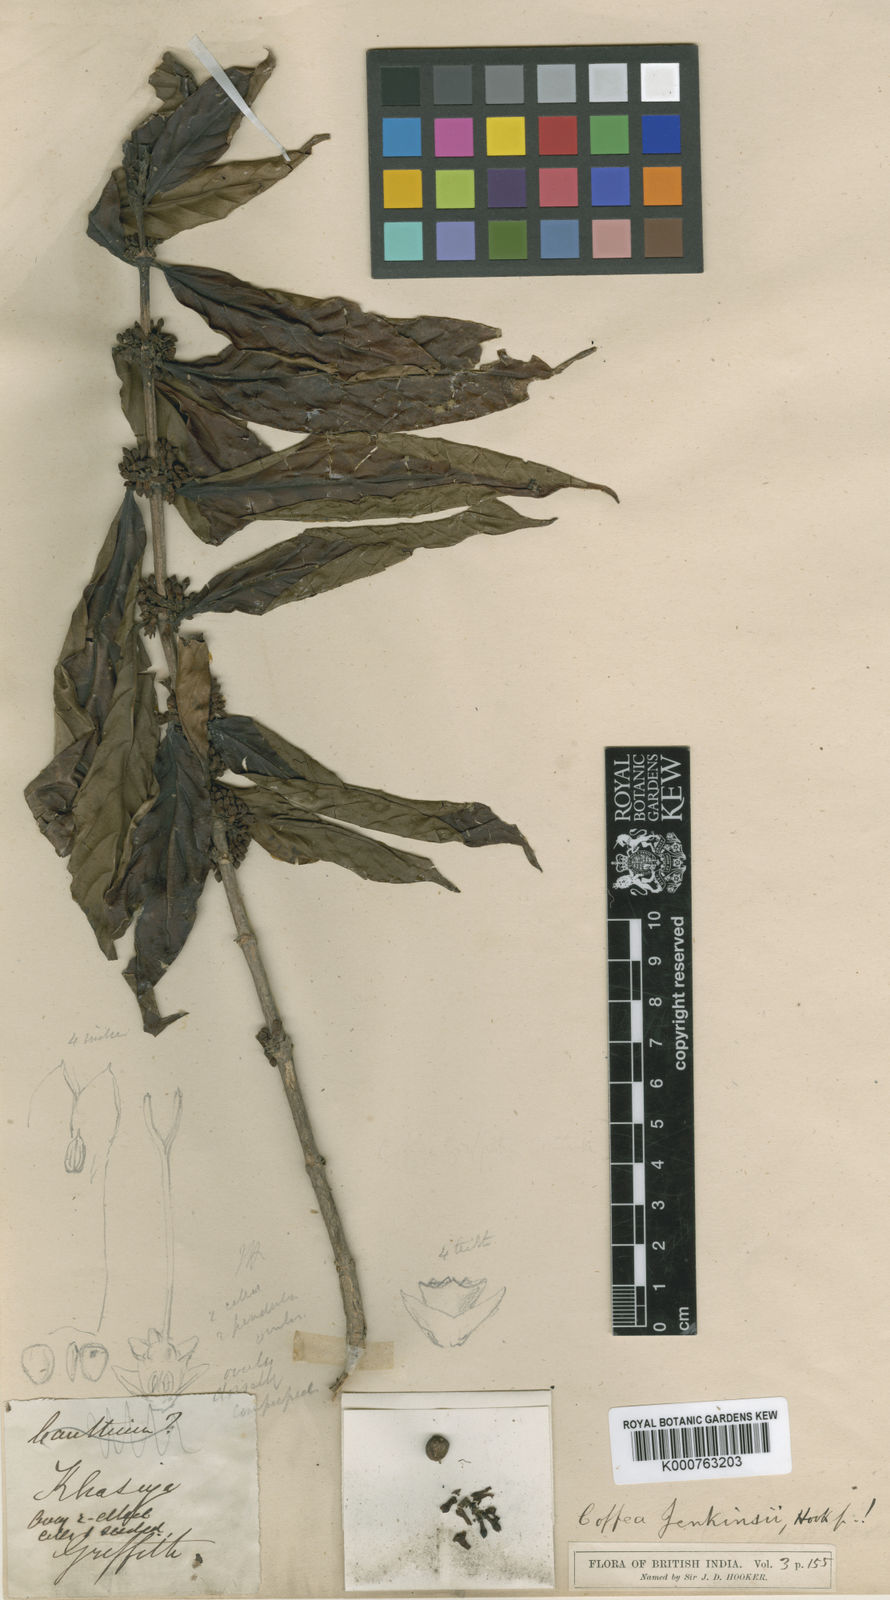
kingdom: Plantae
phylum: Tracheophyta
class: Magnoliopsida
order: Gentianales
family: Rubiaceae
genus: Nostolachma
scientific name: Nostolachma jenkinsii
